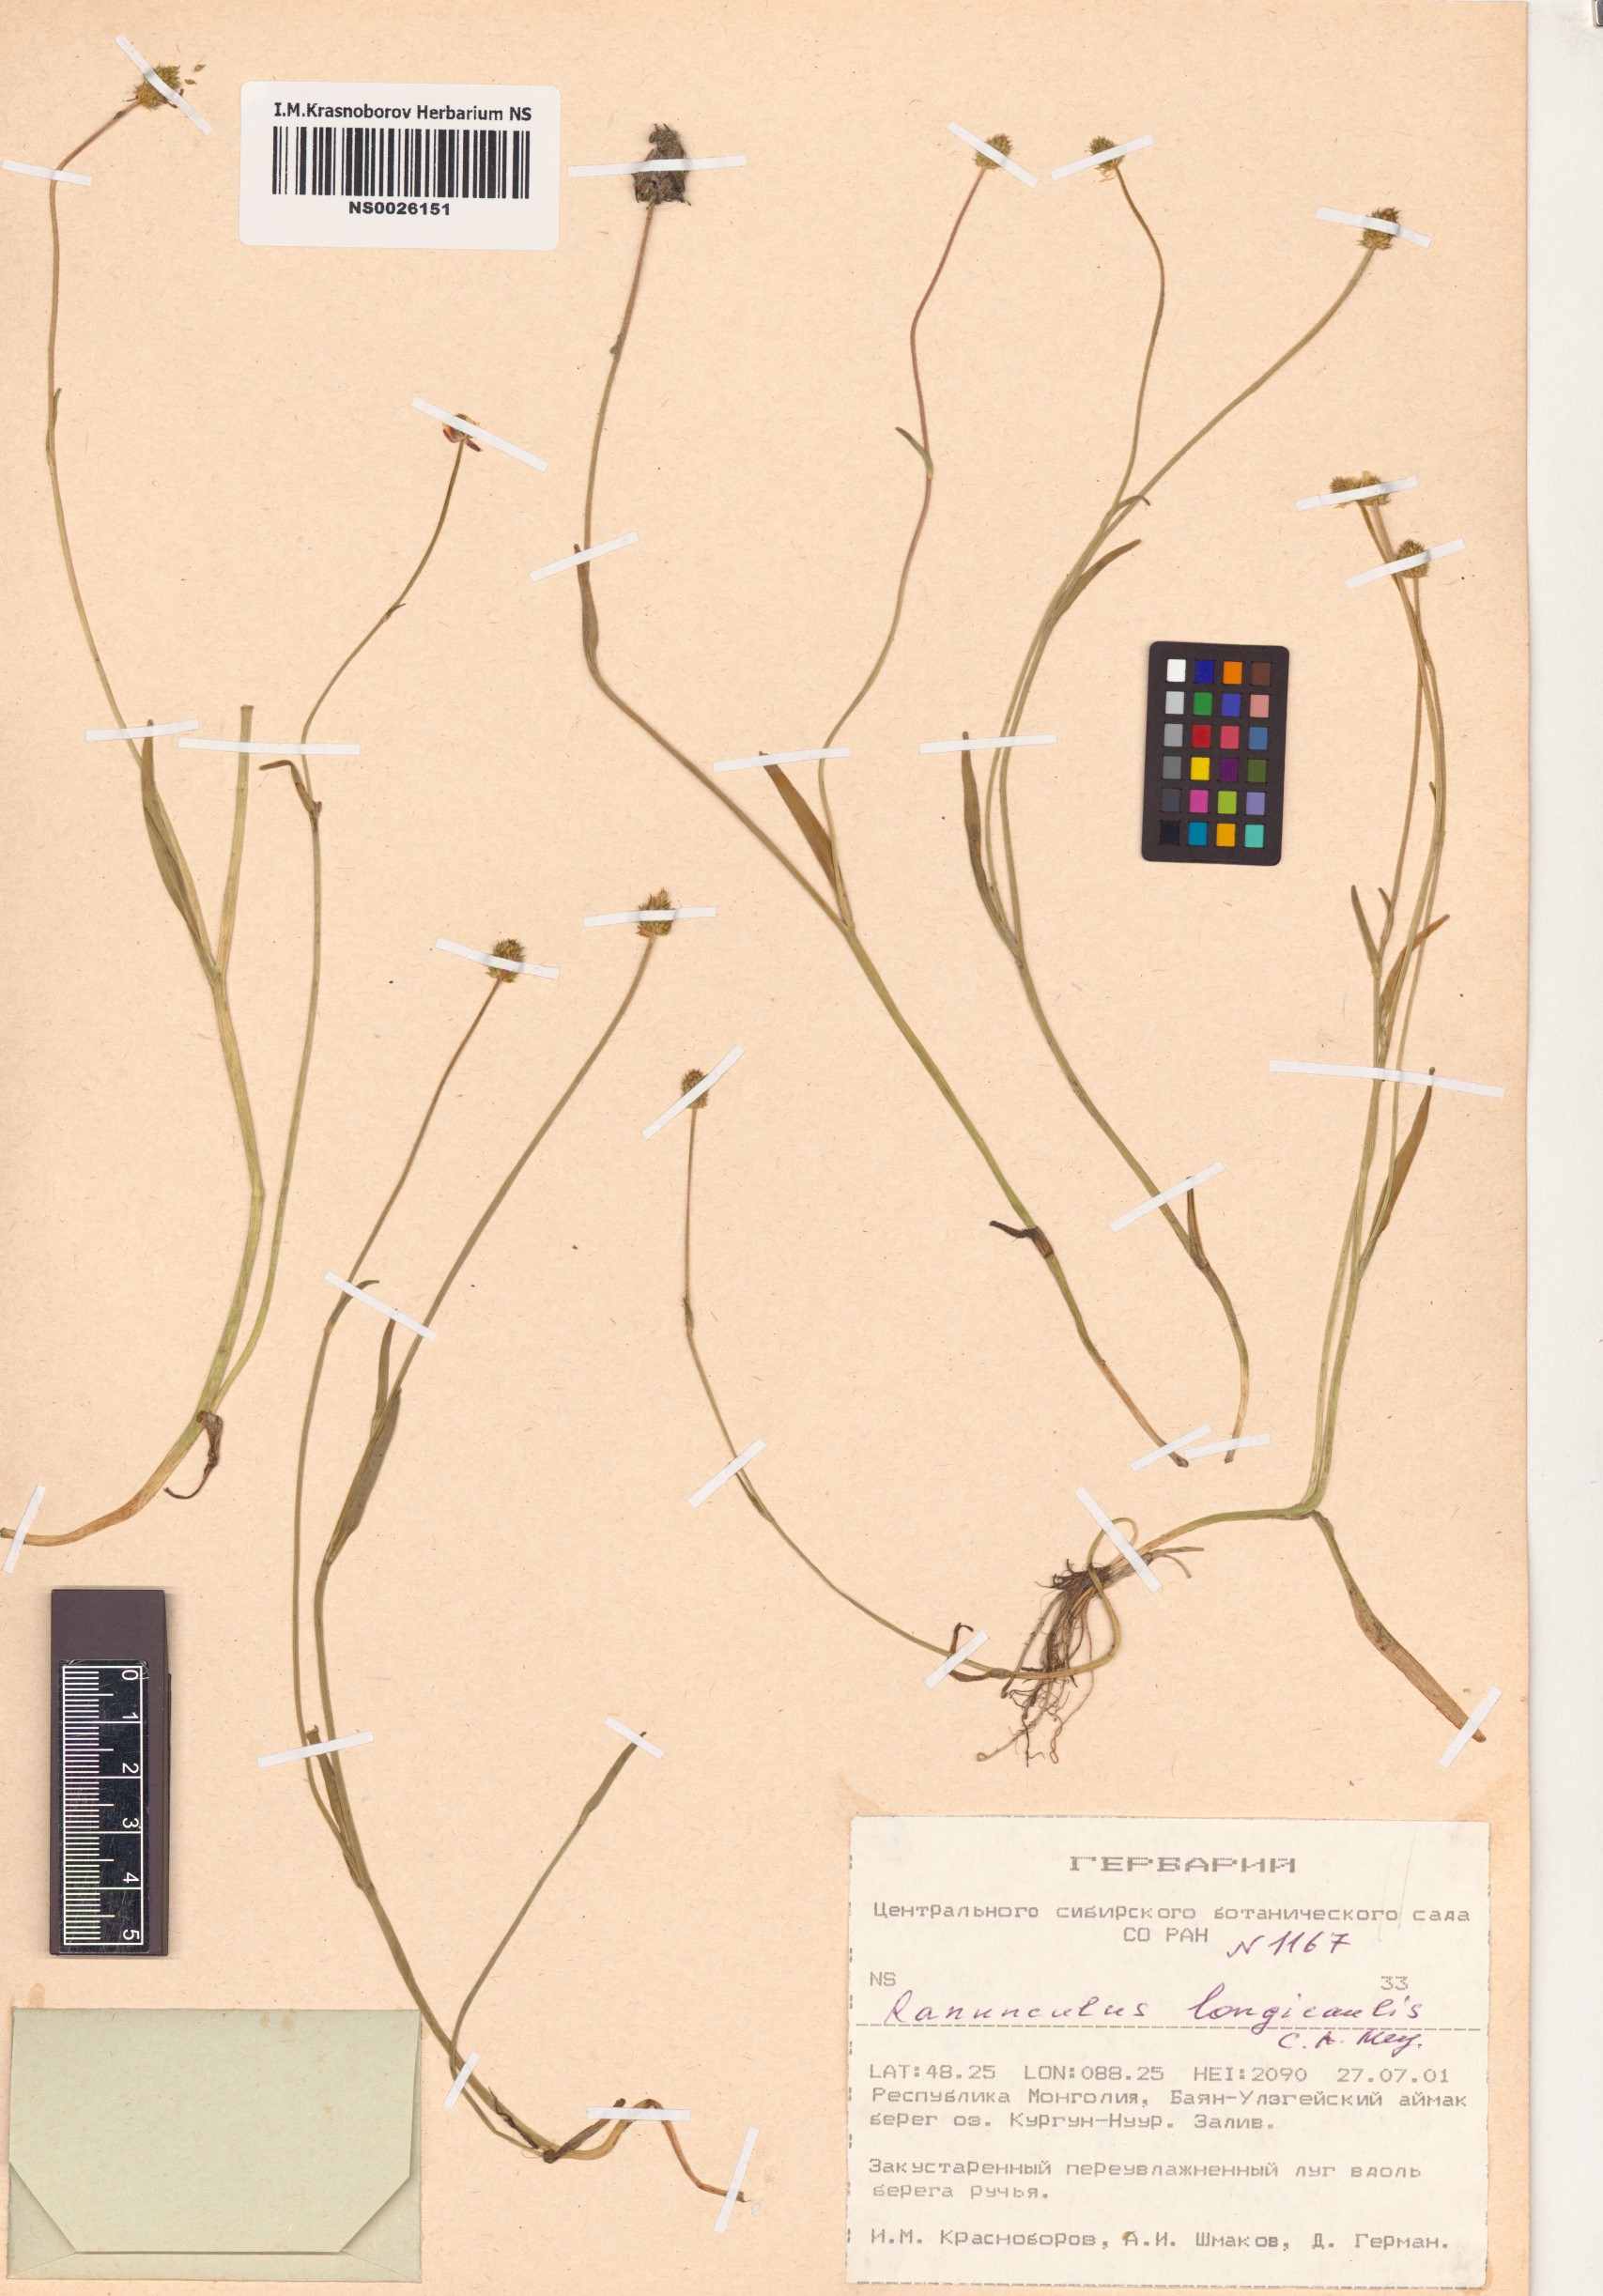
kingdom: Plantae
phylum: Tracheophyta
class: Magnoliopsida
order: Ranunculales
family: Ranunculaceae
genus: Ranunculus
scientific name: Ranunculus longicaulis
